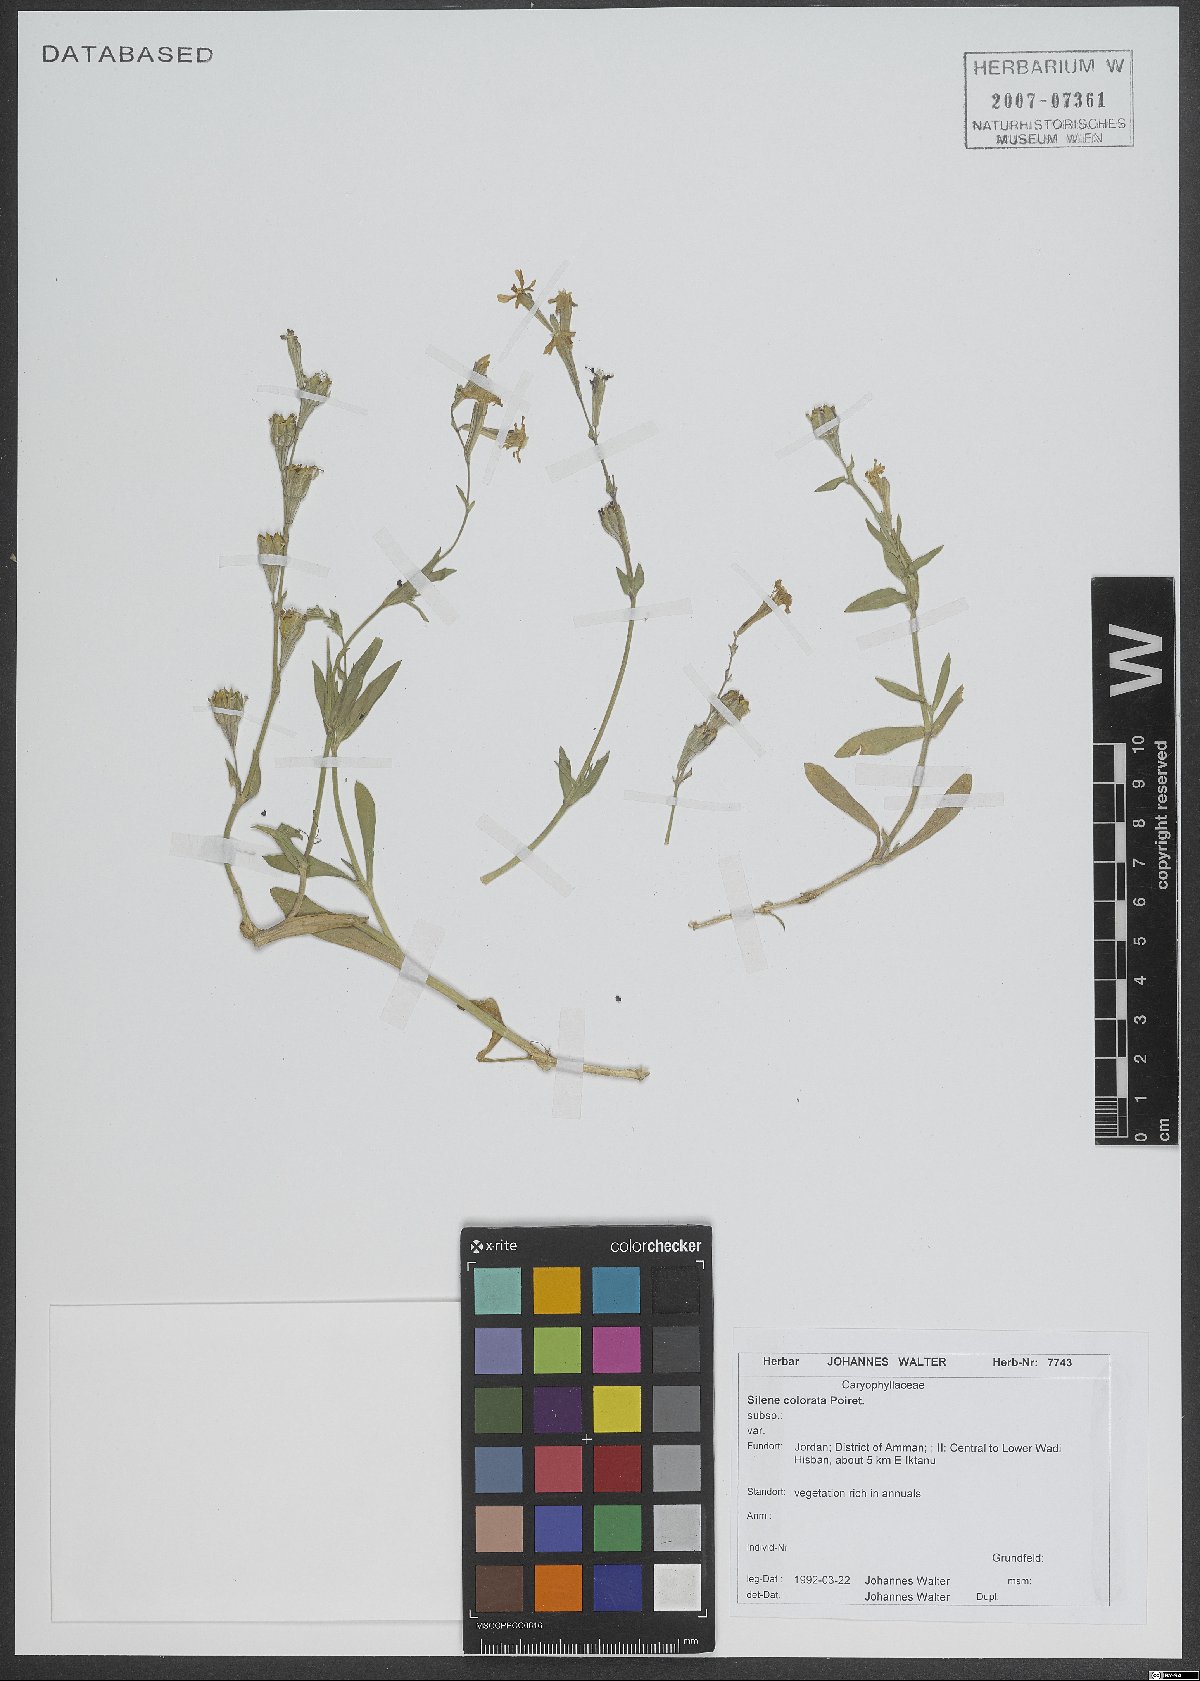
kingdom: Plantae
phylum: Tracheophyta
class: Magnoliopsida
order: Caryophyllales
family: Caryophyllaceae
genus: Silene
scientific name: Silene colorata
